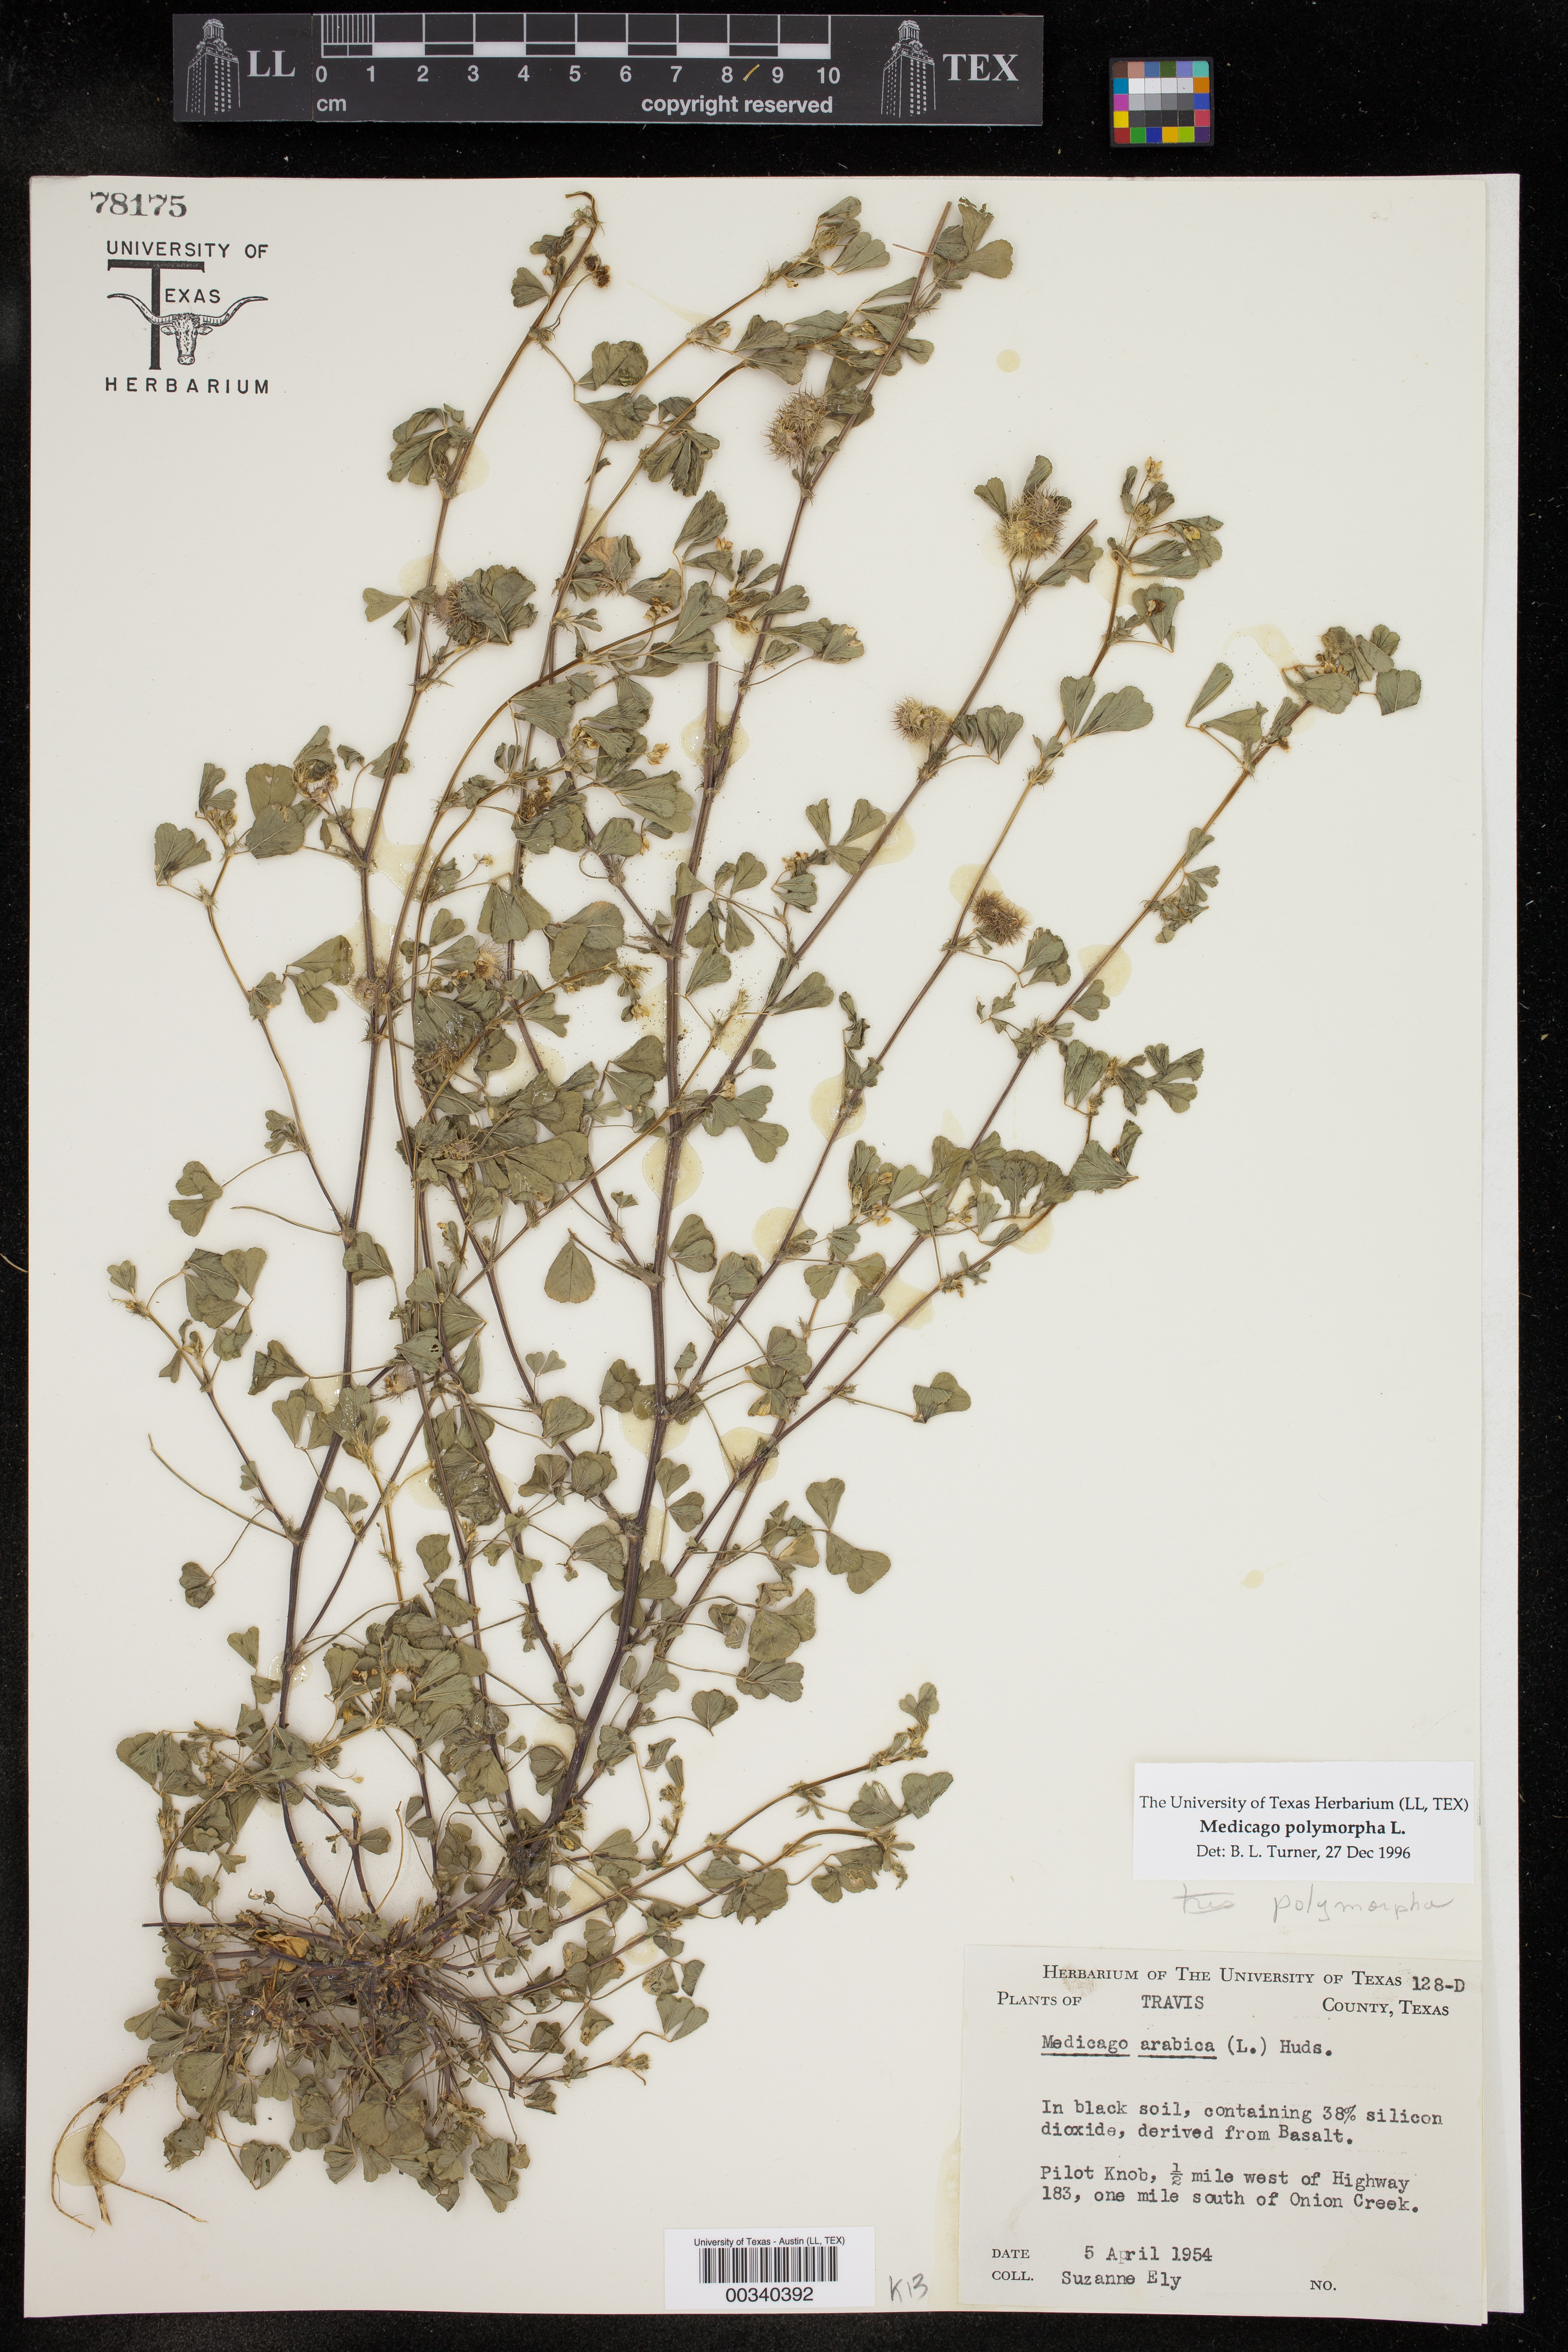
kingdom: Plantae
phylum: Tracheophyta
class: Magnoliopsida
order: Fabales
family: Fabaceae
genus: Medicago
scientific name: Medicago polymorpha
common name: Burclover
